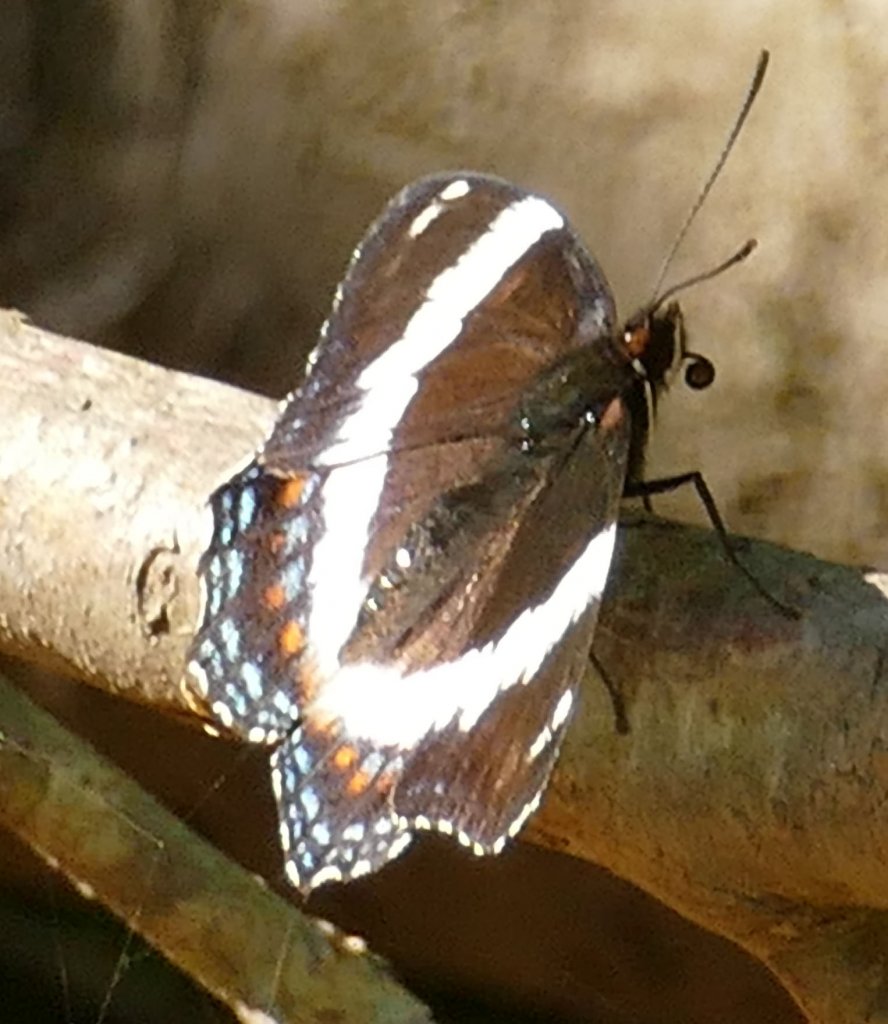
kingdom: Animalia
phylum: Arthropoda
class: Insecta
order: Lepidoptera
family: Nymphalidae
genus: Limenitis
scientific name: Limenitis arthemis
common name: Red-spotted Admiral
